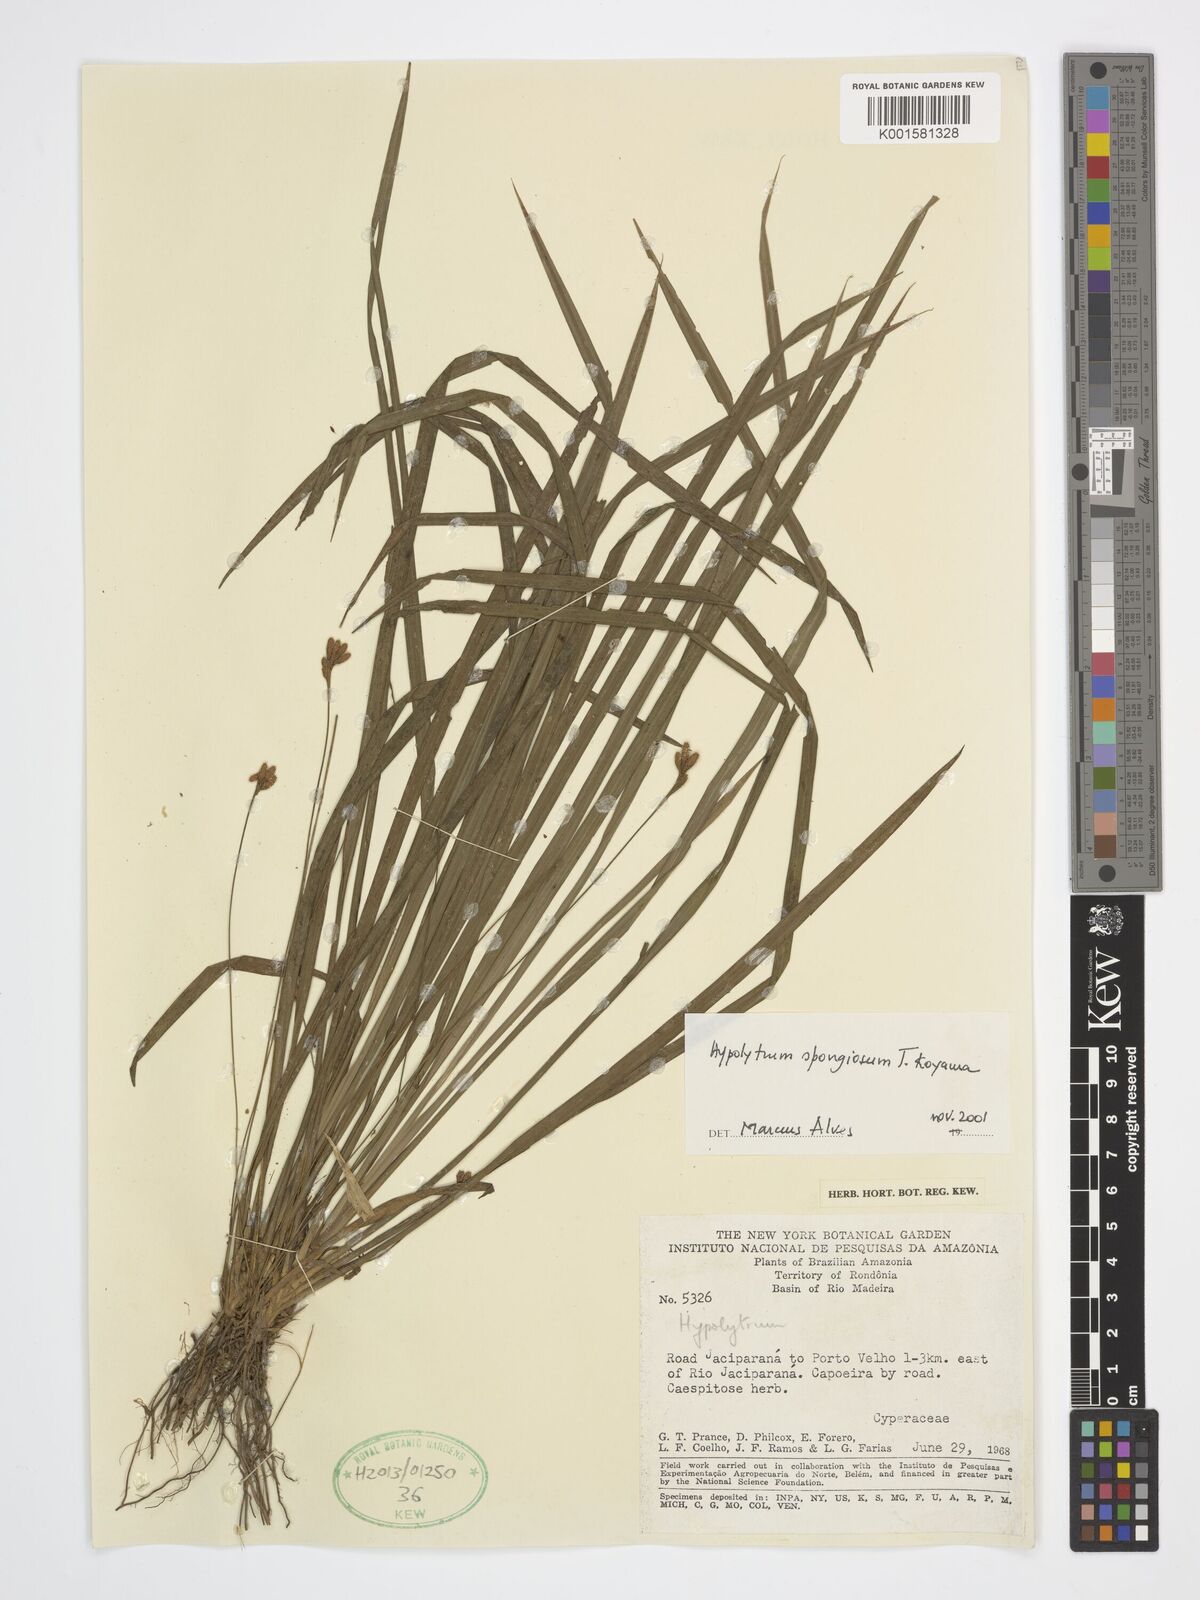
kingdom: Plantae
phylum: Tracheophyta
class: Liliopsida
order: Poales
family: Cyperaceae
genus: Hypolytrum
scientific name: Hypolytrum spongiosum
